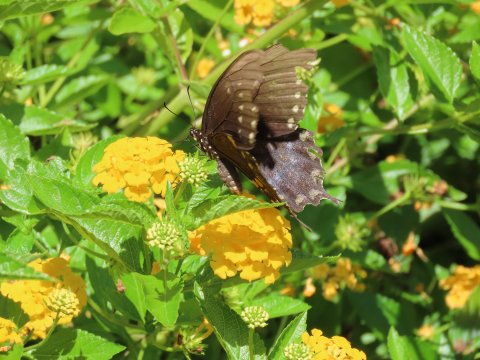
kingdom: Animalia
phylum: Arthropoda
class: Insecta
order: Lepidoptera
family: Papilionidae
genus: Pterourus
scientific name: Pterourus troilus
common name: Spicebush Swallowtail
